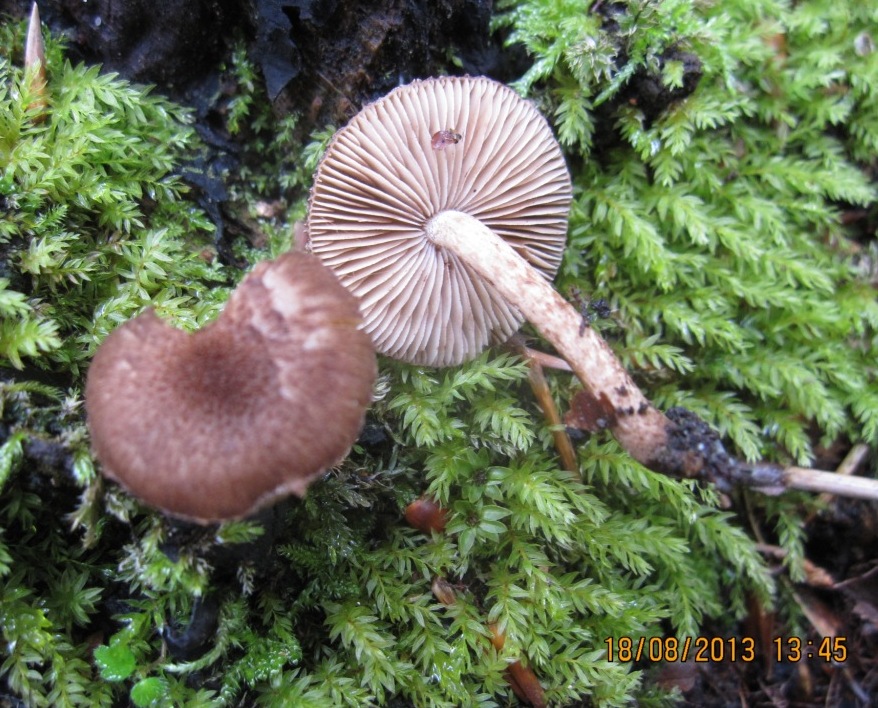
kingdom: Fungi
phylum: Basidiomycota
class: Agaricomycetes
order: Agaricales
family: Inocybaceae
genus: Inocybe
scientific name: Inocybe lanuginosa
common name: uldskællet trævlhat
